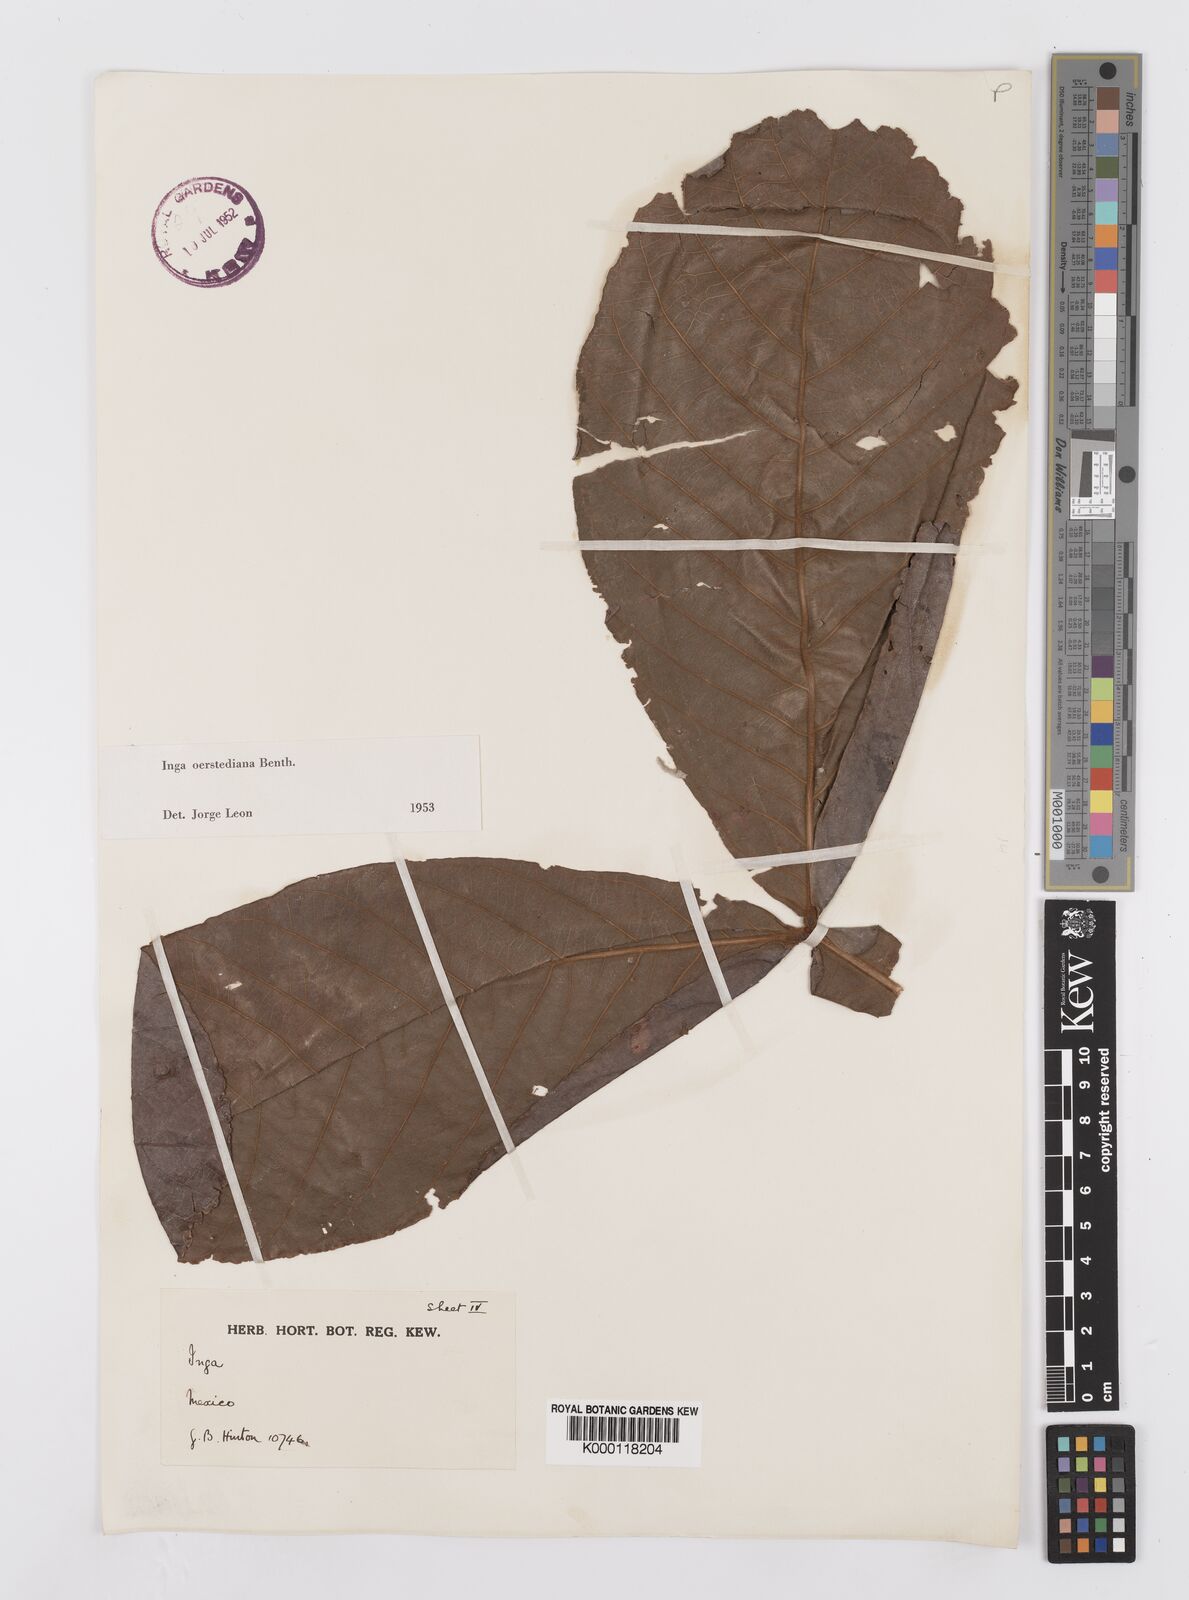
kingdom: Plantae
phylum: Tracheophyta
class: Magnoliopsida
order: Fabales
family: Fabaceae
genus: Inga
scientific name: Inga oerstediana
